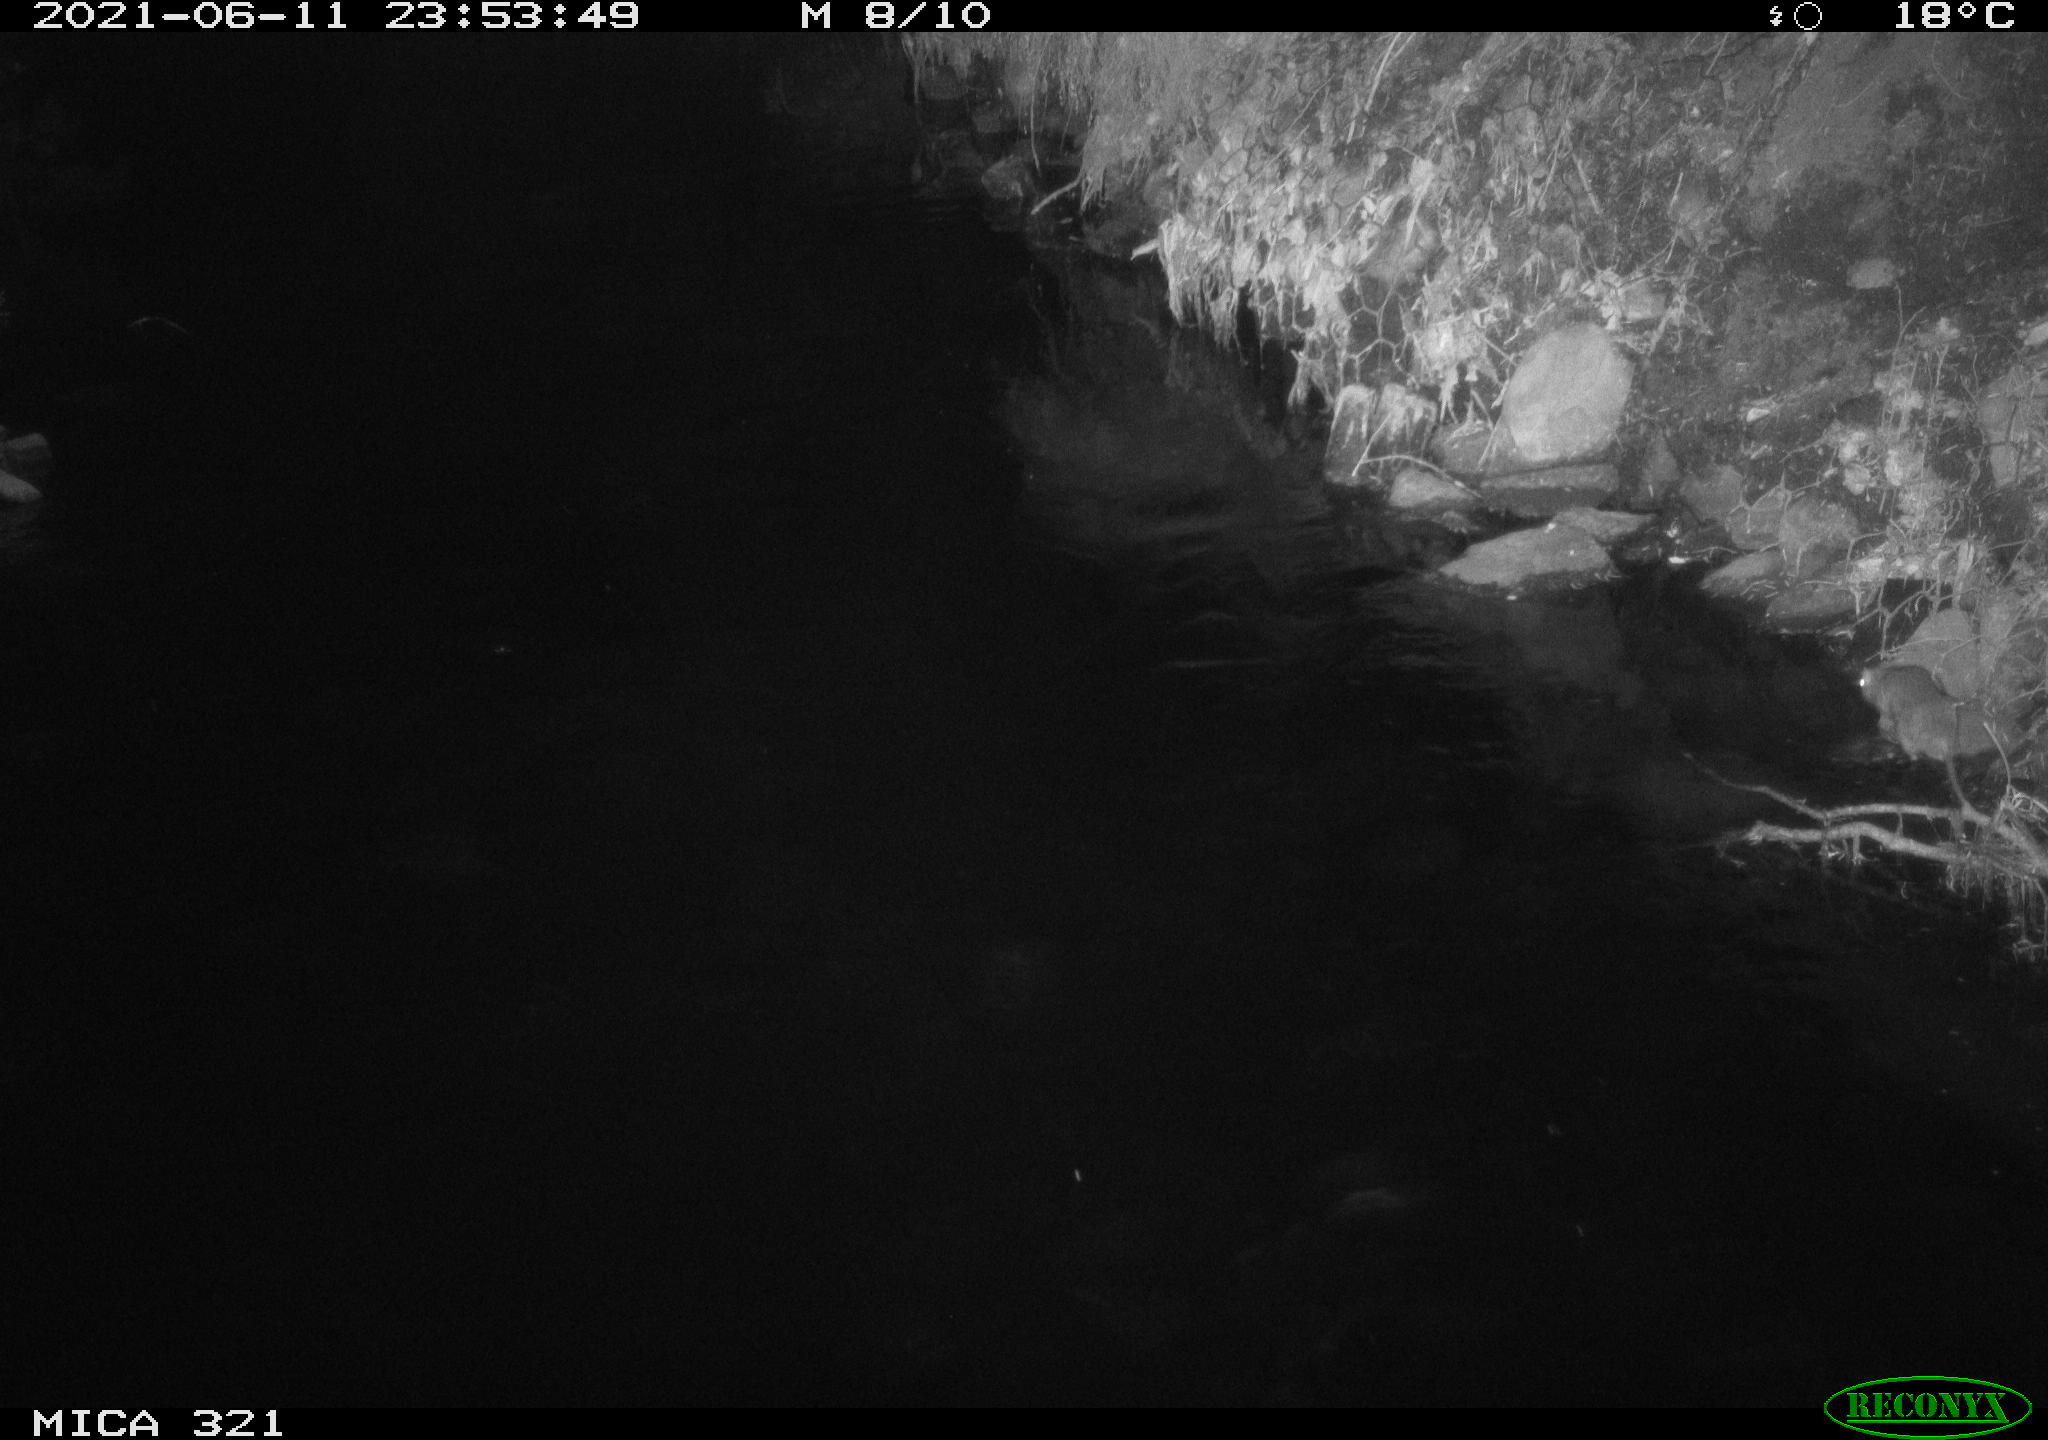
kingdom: Animalia
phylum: Chordata
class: Mammalia
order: Rodentia
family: Muridae
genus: Rattus
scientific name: Rattus norvegicus
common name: Brown rat
